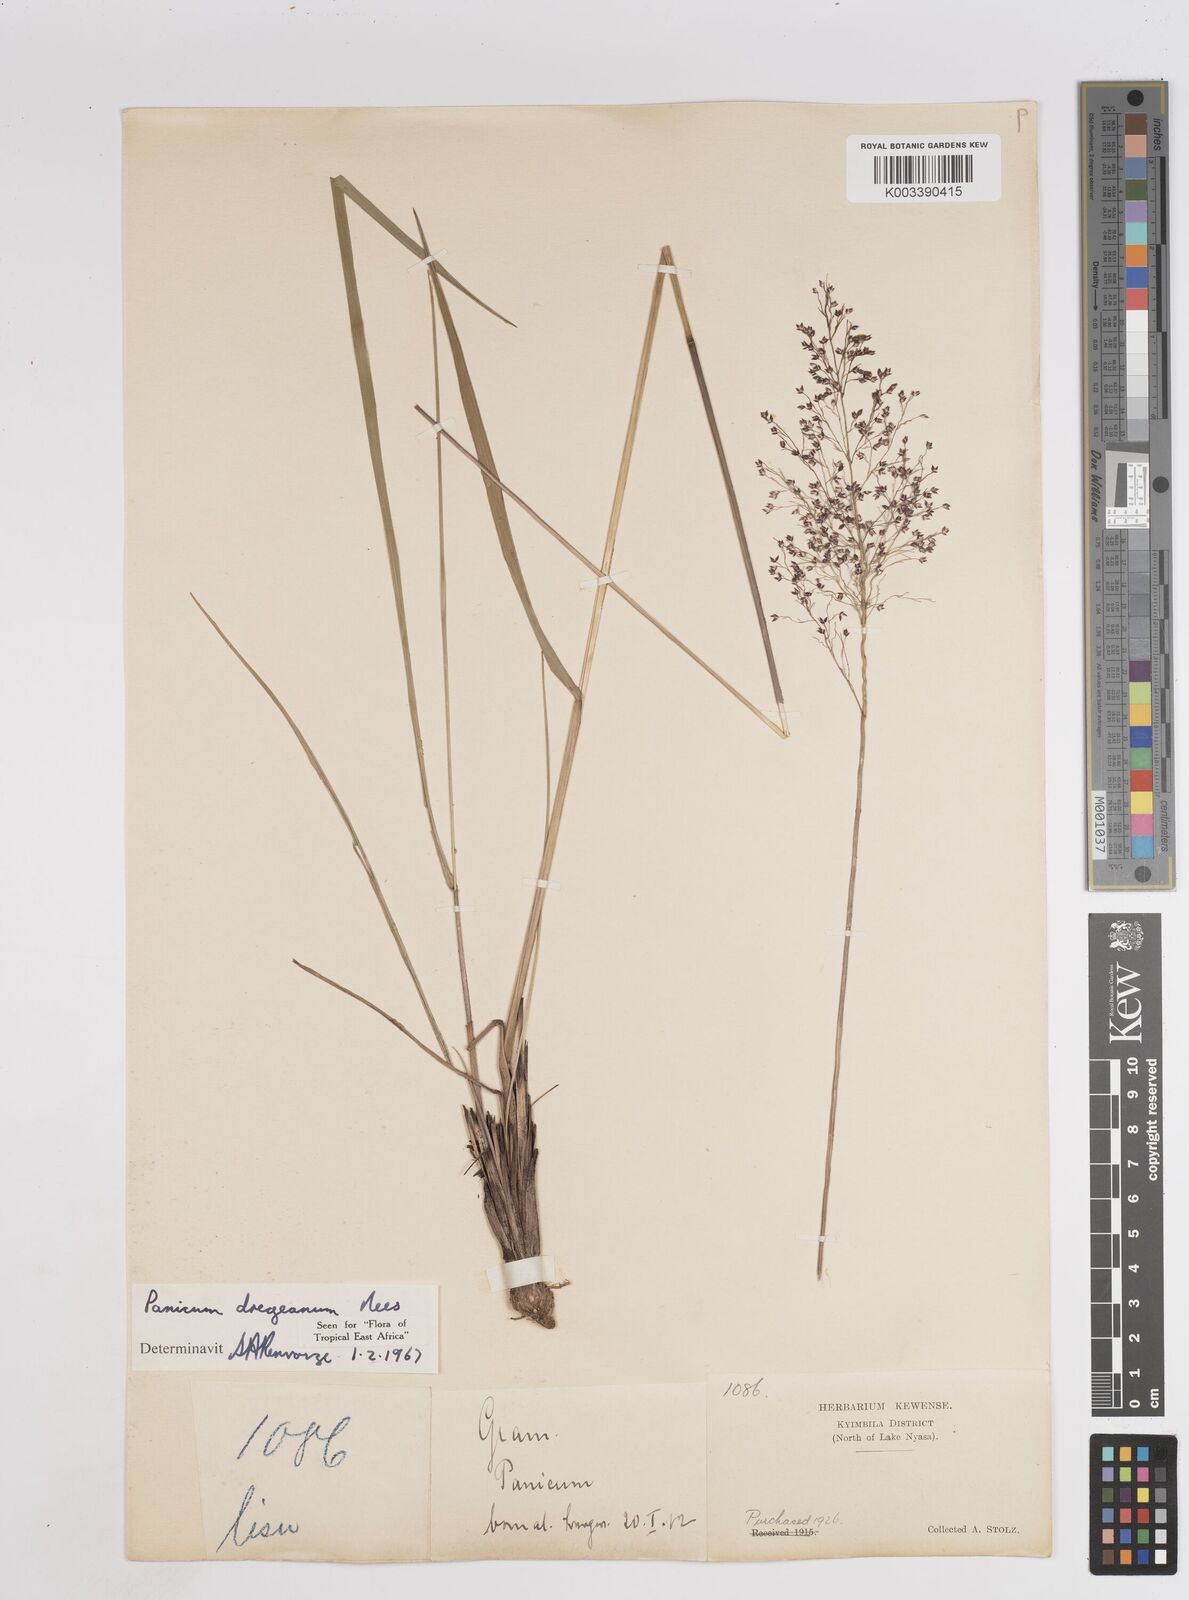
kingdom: Plantae
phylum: Tracheophyta
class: Liliopsida
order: Poales
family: Poaceae
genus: Panicum
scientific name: Panicum dregeanum
